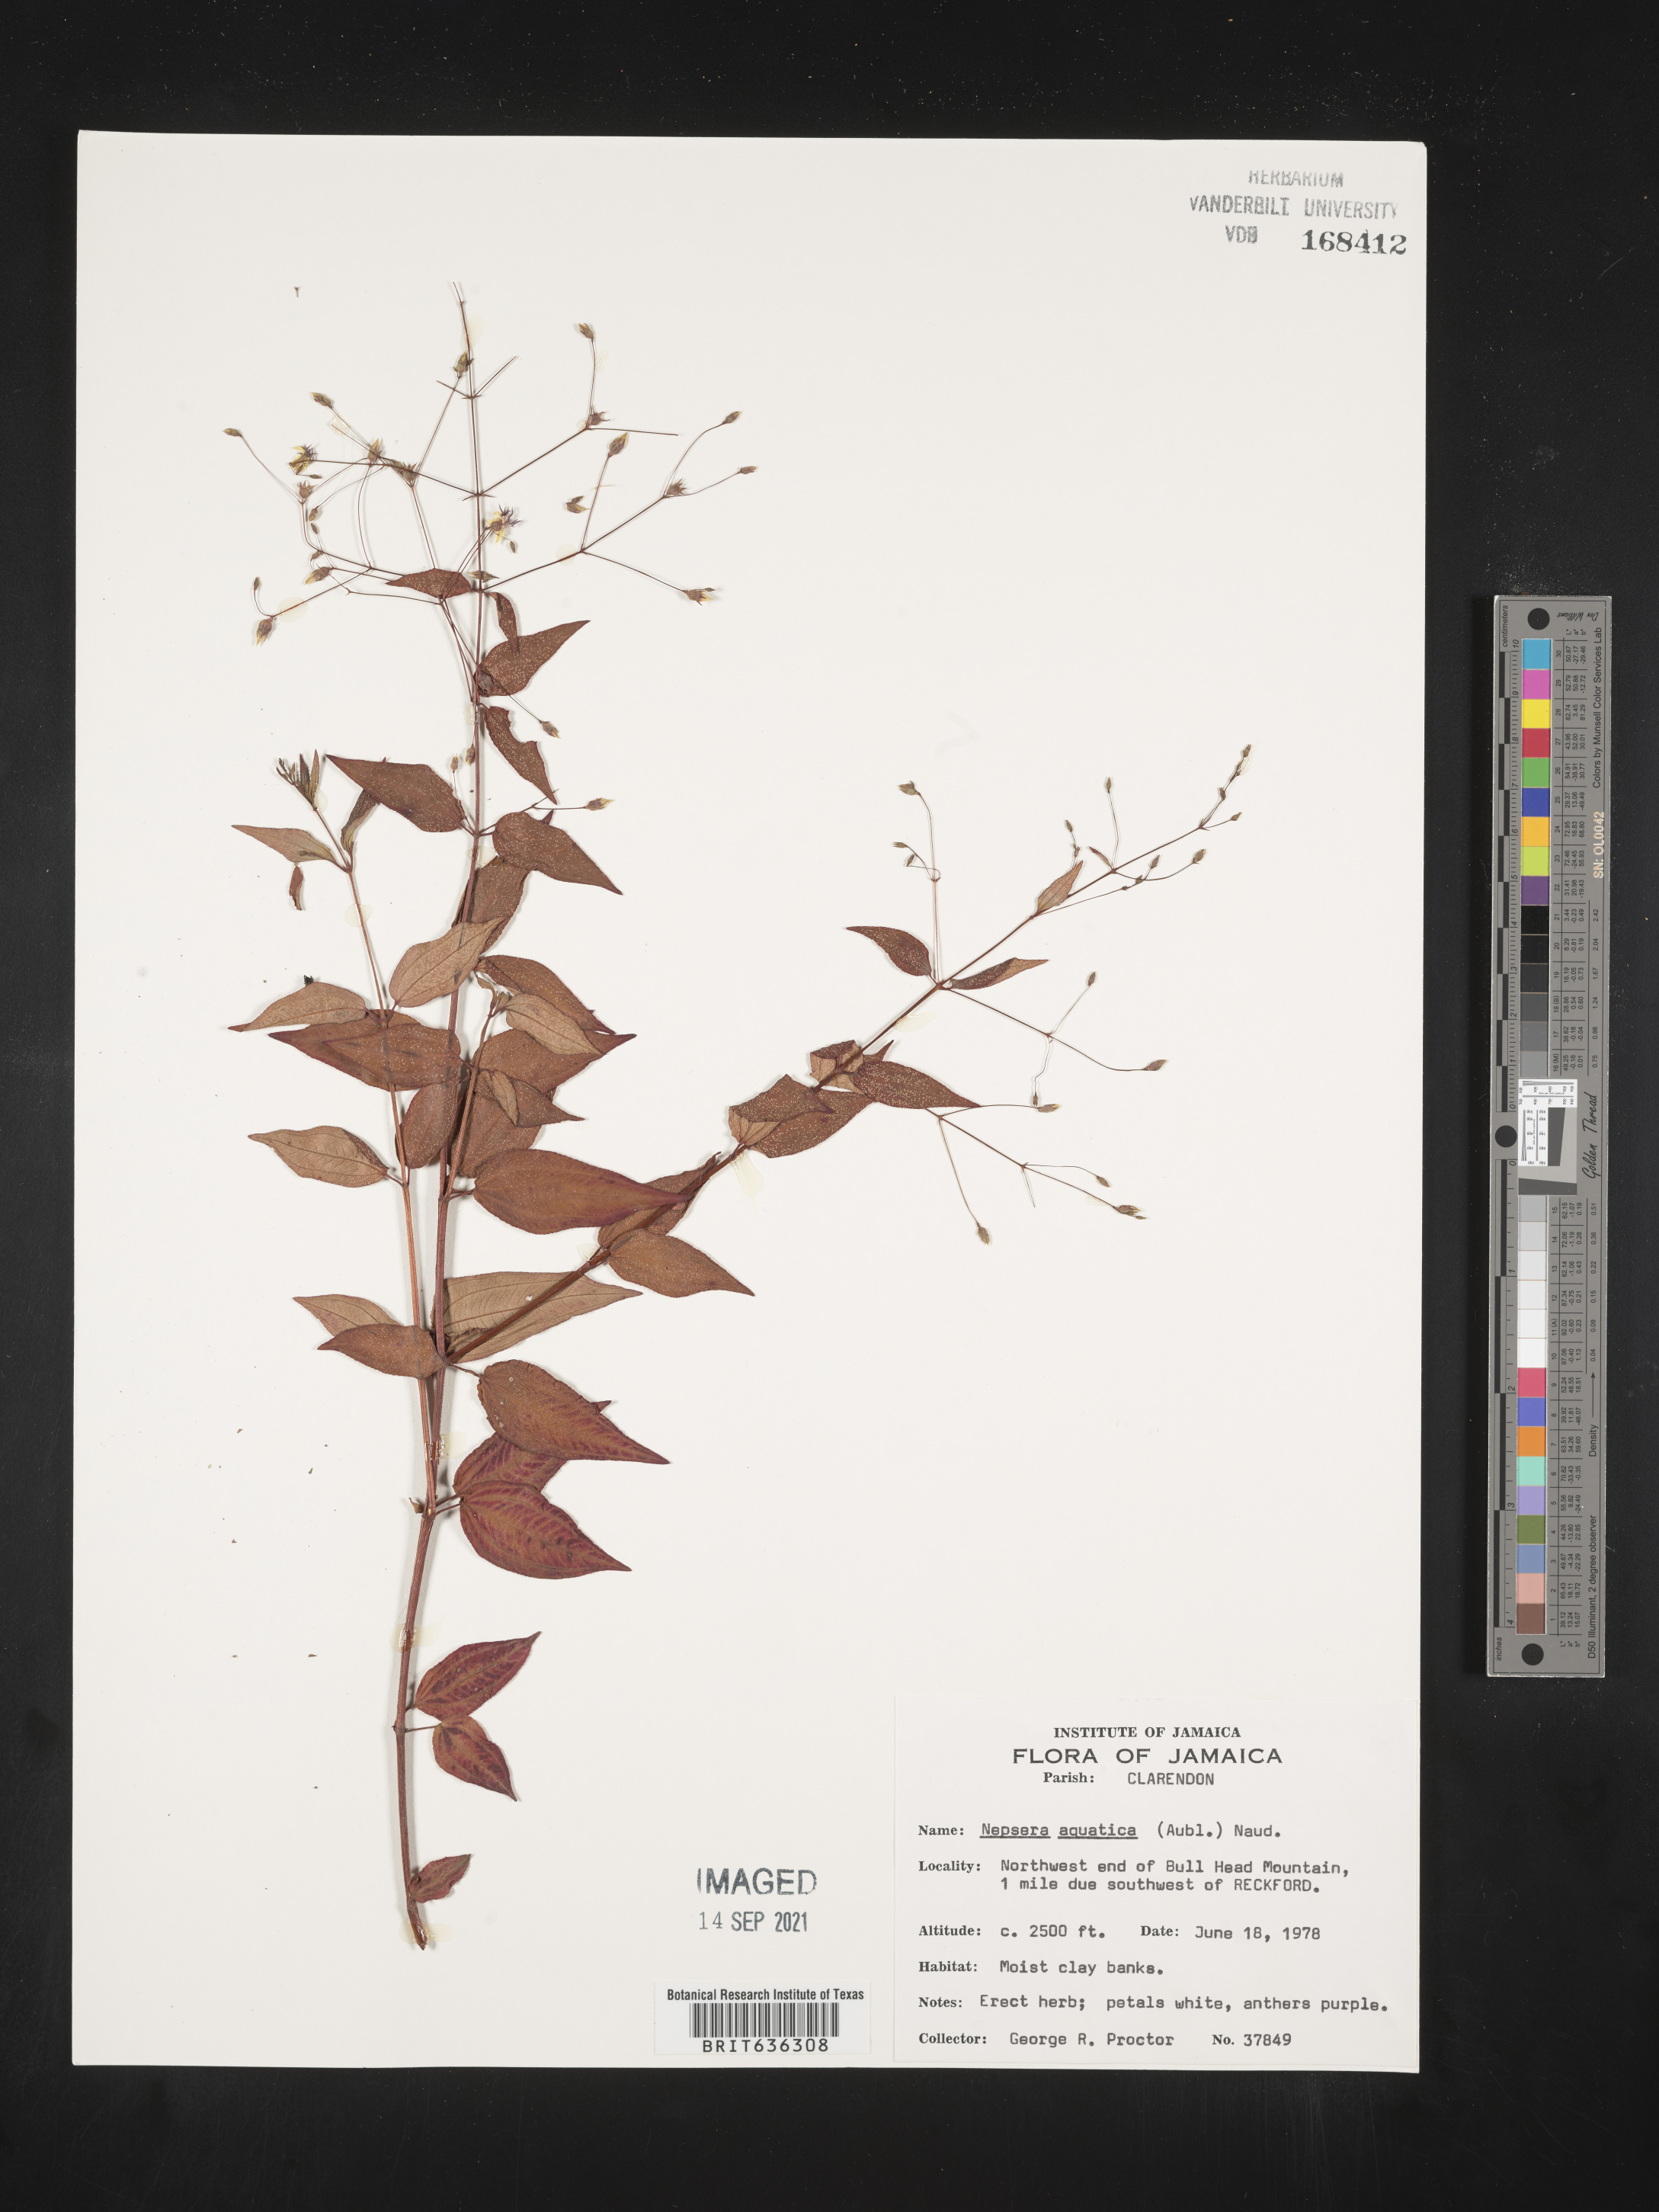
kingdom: Plantae
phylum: Tracheophyta
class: Magnoliopsida
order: Myrtales
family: Melastomataceae
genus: Nepsera
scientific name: Nepsera
